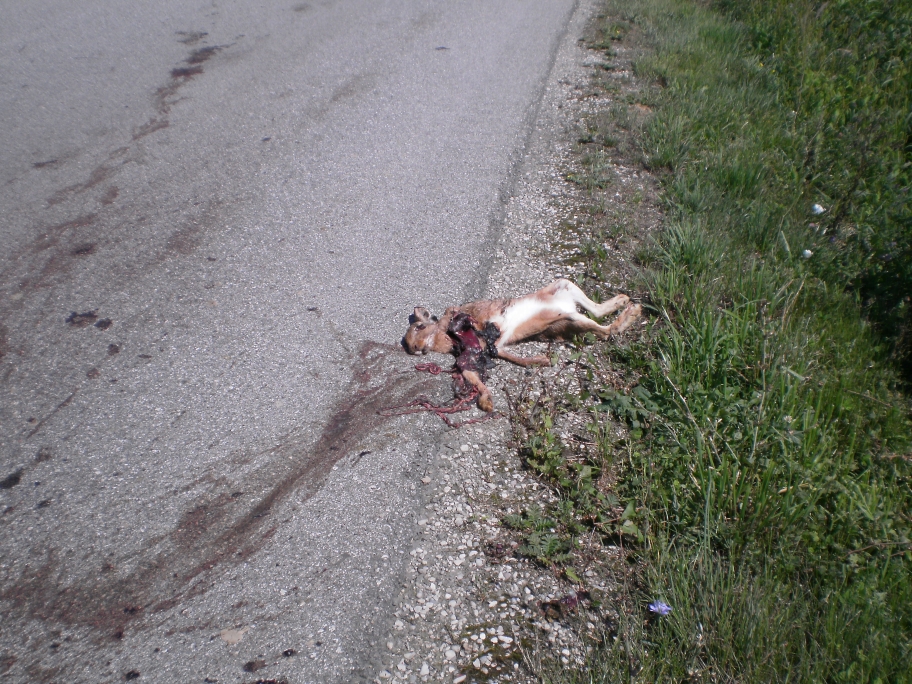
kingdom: Animalia
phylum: Chordata
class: Mammalia
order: Lagomorpha
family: Leporidae
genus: Lepus
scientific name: Lepus europaeus
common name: European hare
